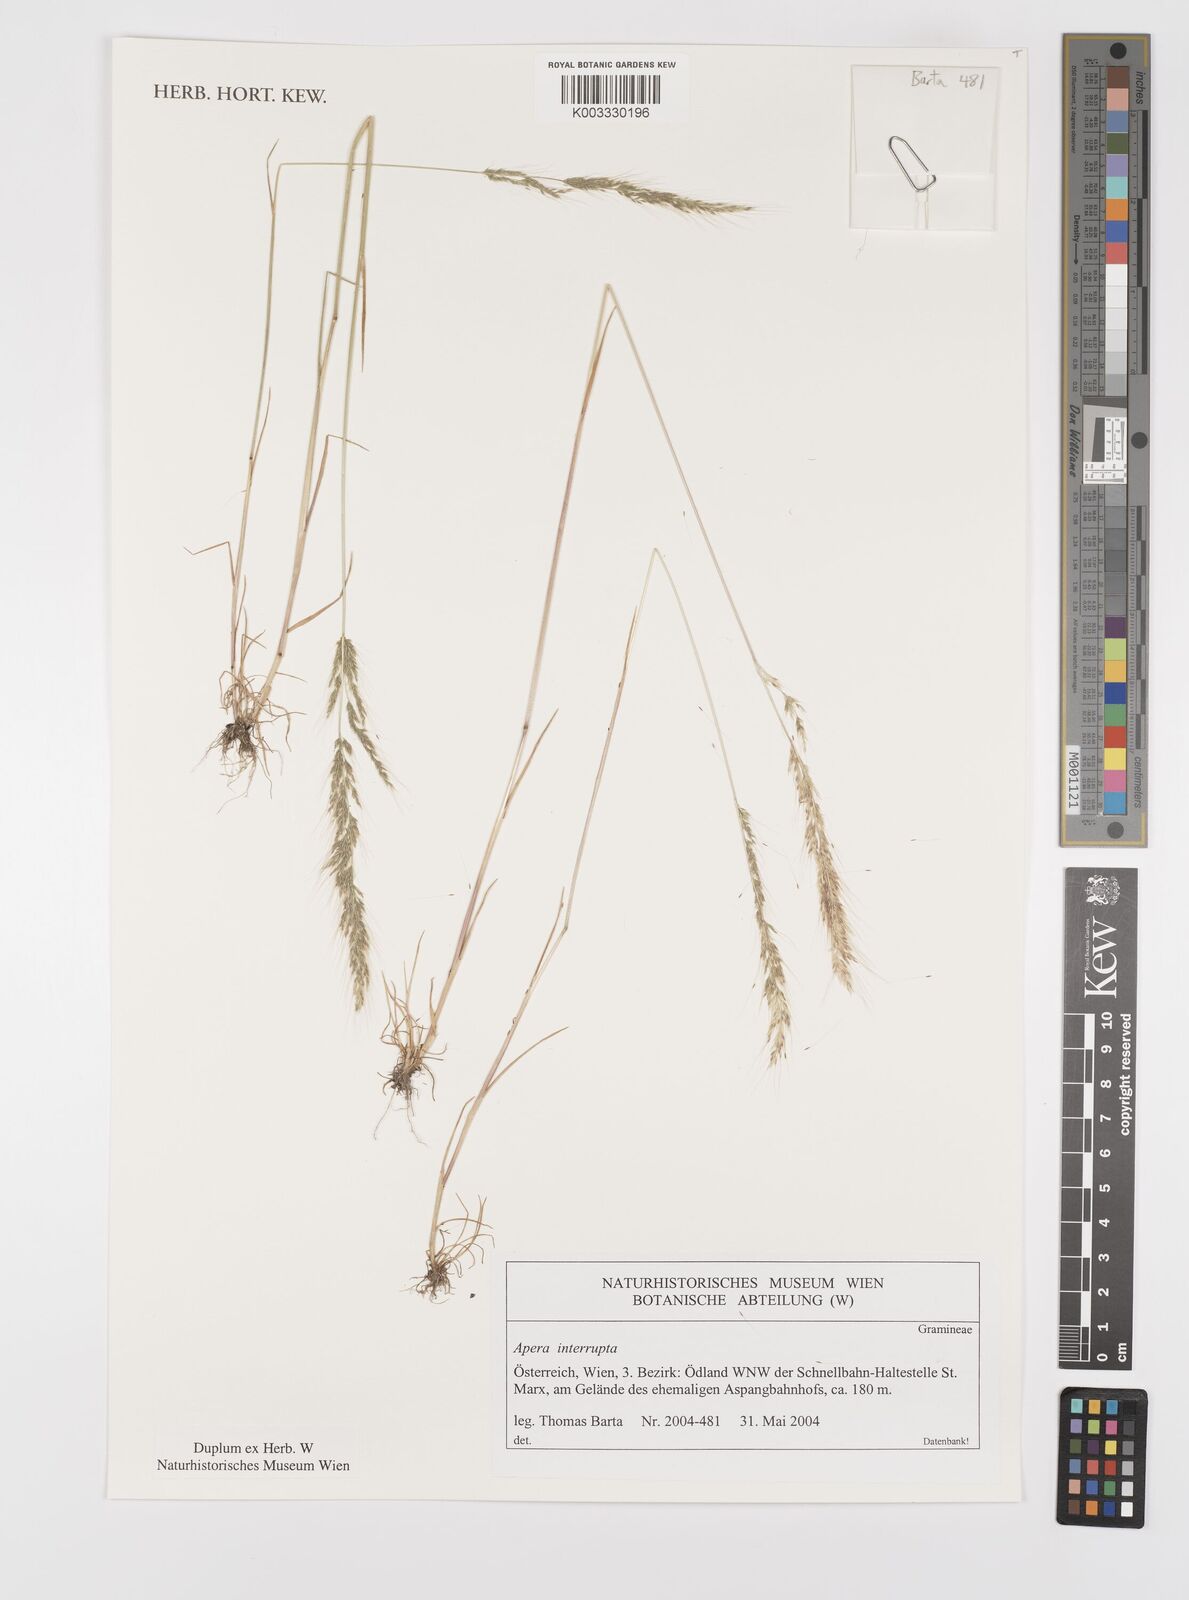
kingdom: Plantae
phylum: Tracheophyta
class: Liliopsida
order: Poales
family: Poaceae
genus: Apera
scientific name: Apera interrupta
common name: Dense silky-bent
